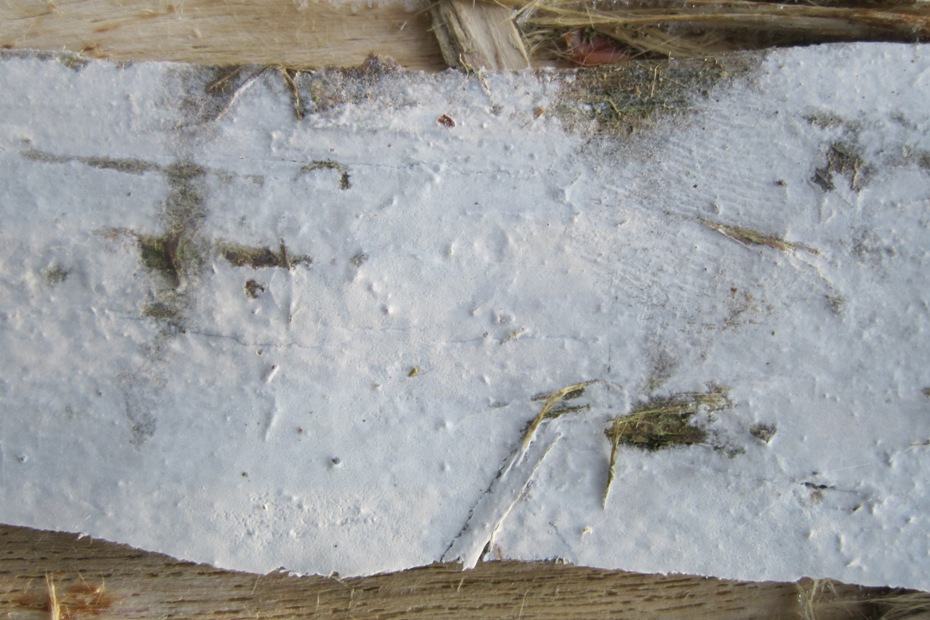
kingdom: Fungi
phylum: Basidiomycota
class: Agaricomycetes
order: Atheliales
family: Atheliaceae
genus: Athelia
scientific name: Athelia epiphylla
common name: almindelig barkhinde
